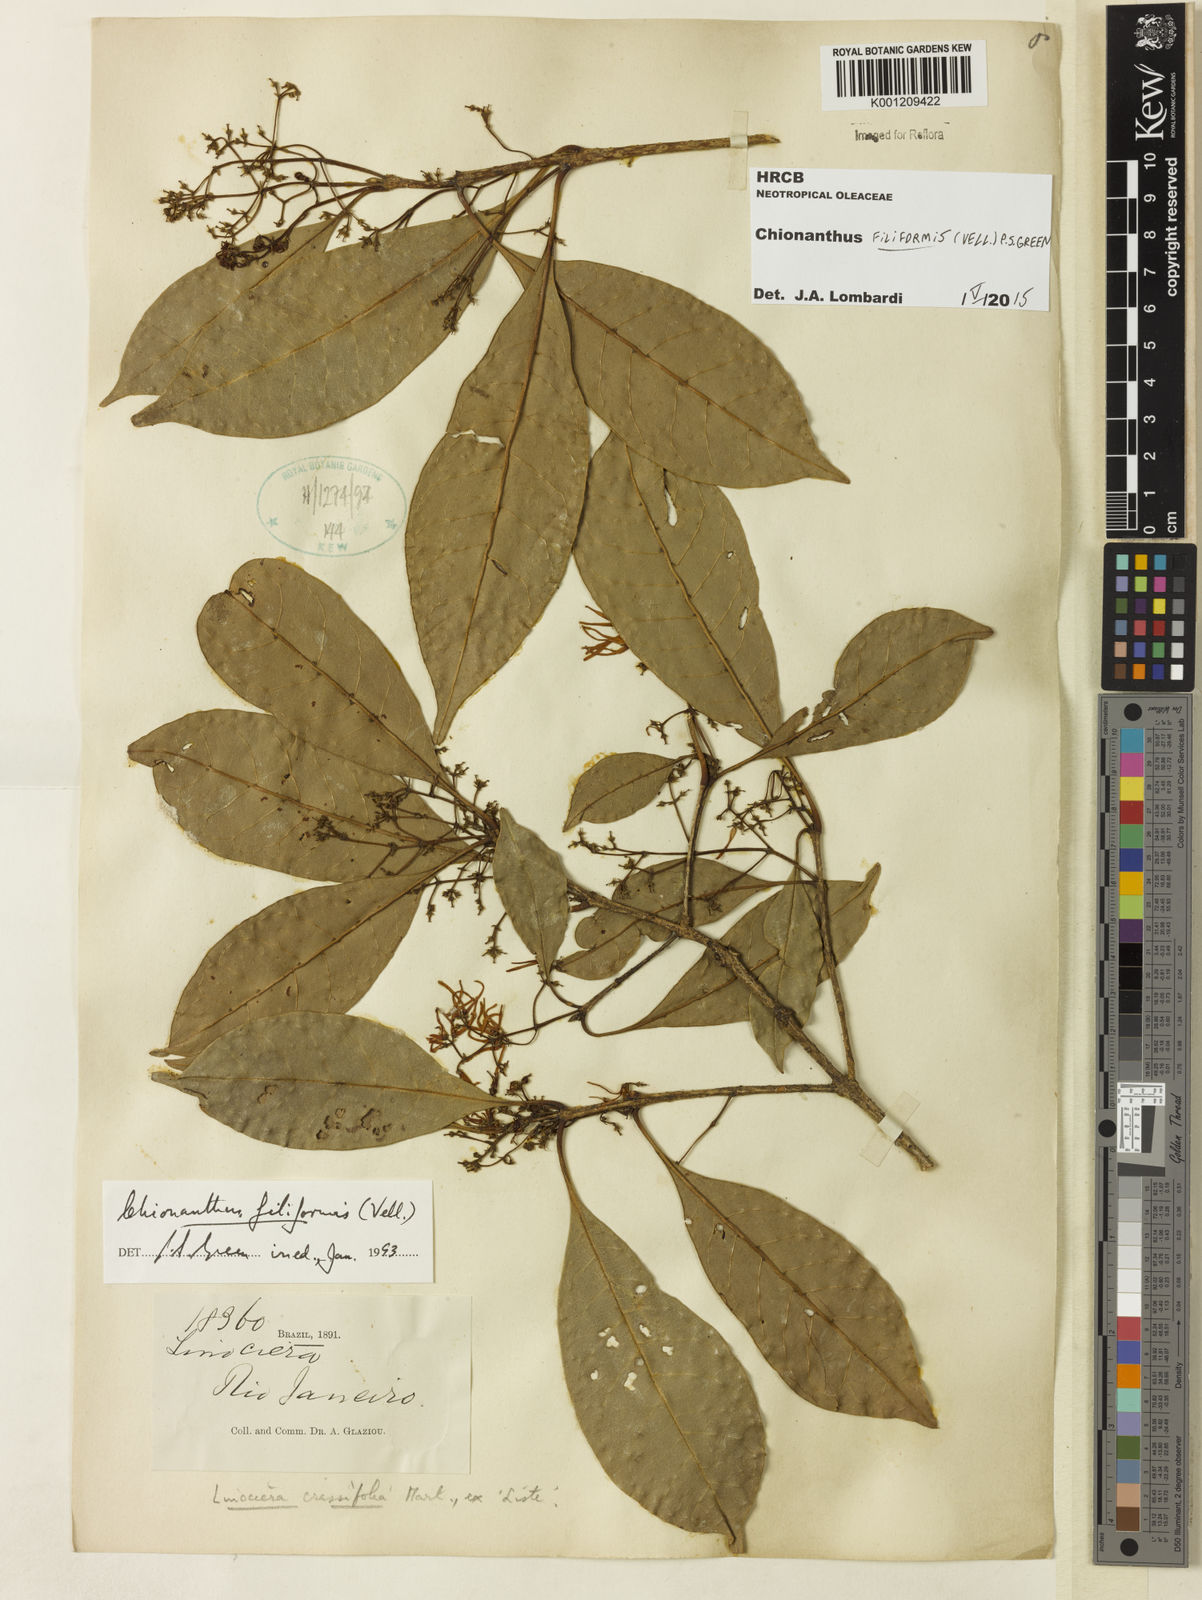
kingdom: Plantae
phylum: Tracheophyta
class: Magnoliopsida
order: Lamiales
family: Oleaceae
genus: Chionanthus
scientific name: Chionanthus filiformis
